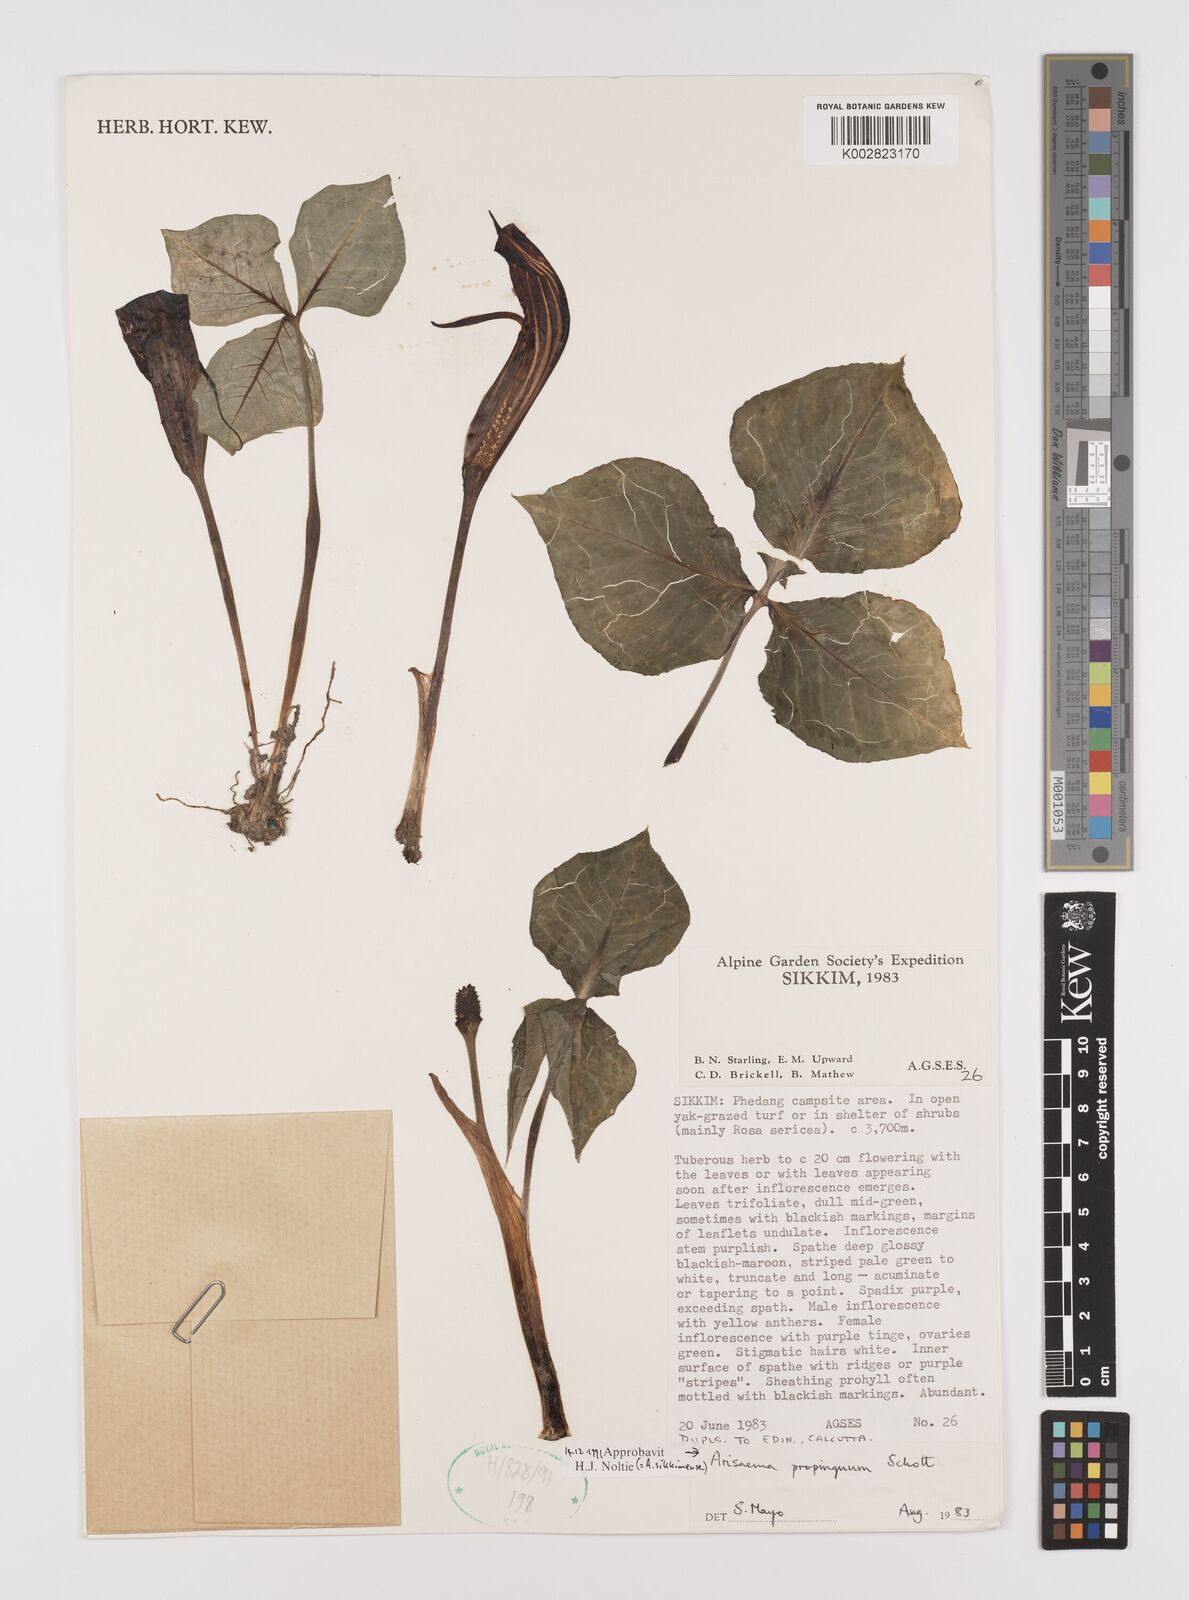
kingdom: Plantae
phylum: Tracheophyta
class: Liliopsida
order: Alismatales
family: Araceae
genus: Arisaema
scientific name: Arisaema propinquum
